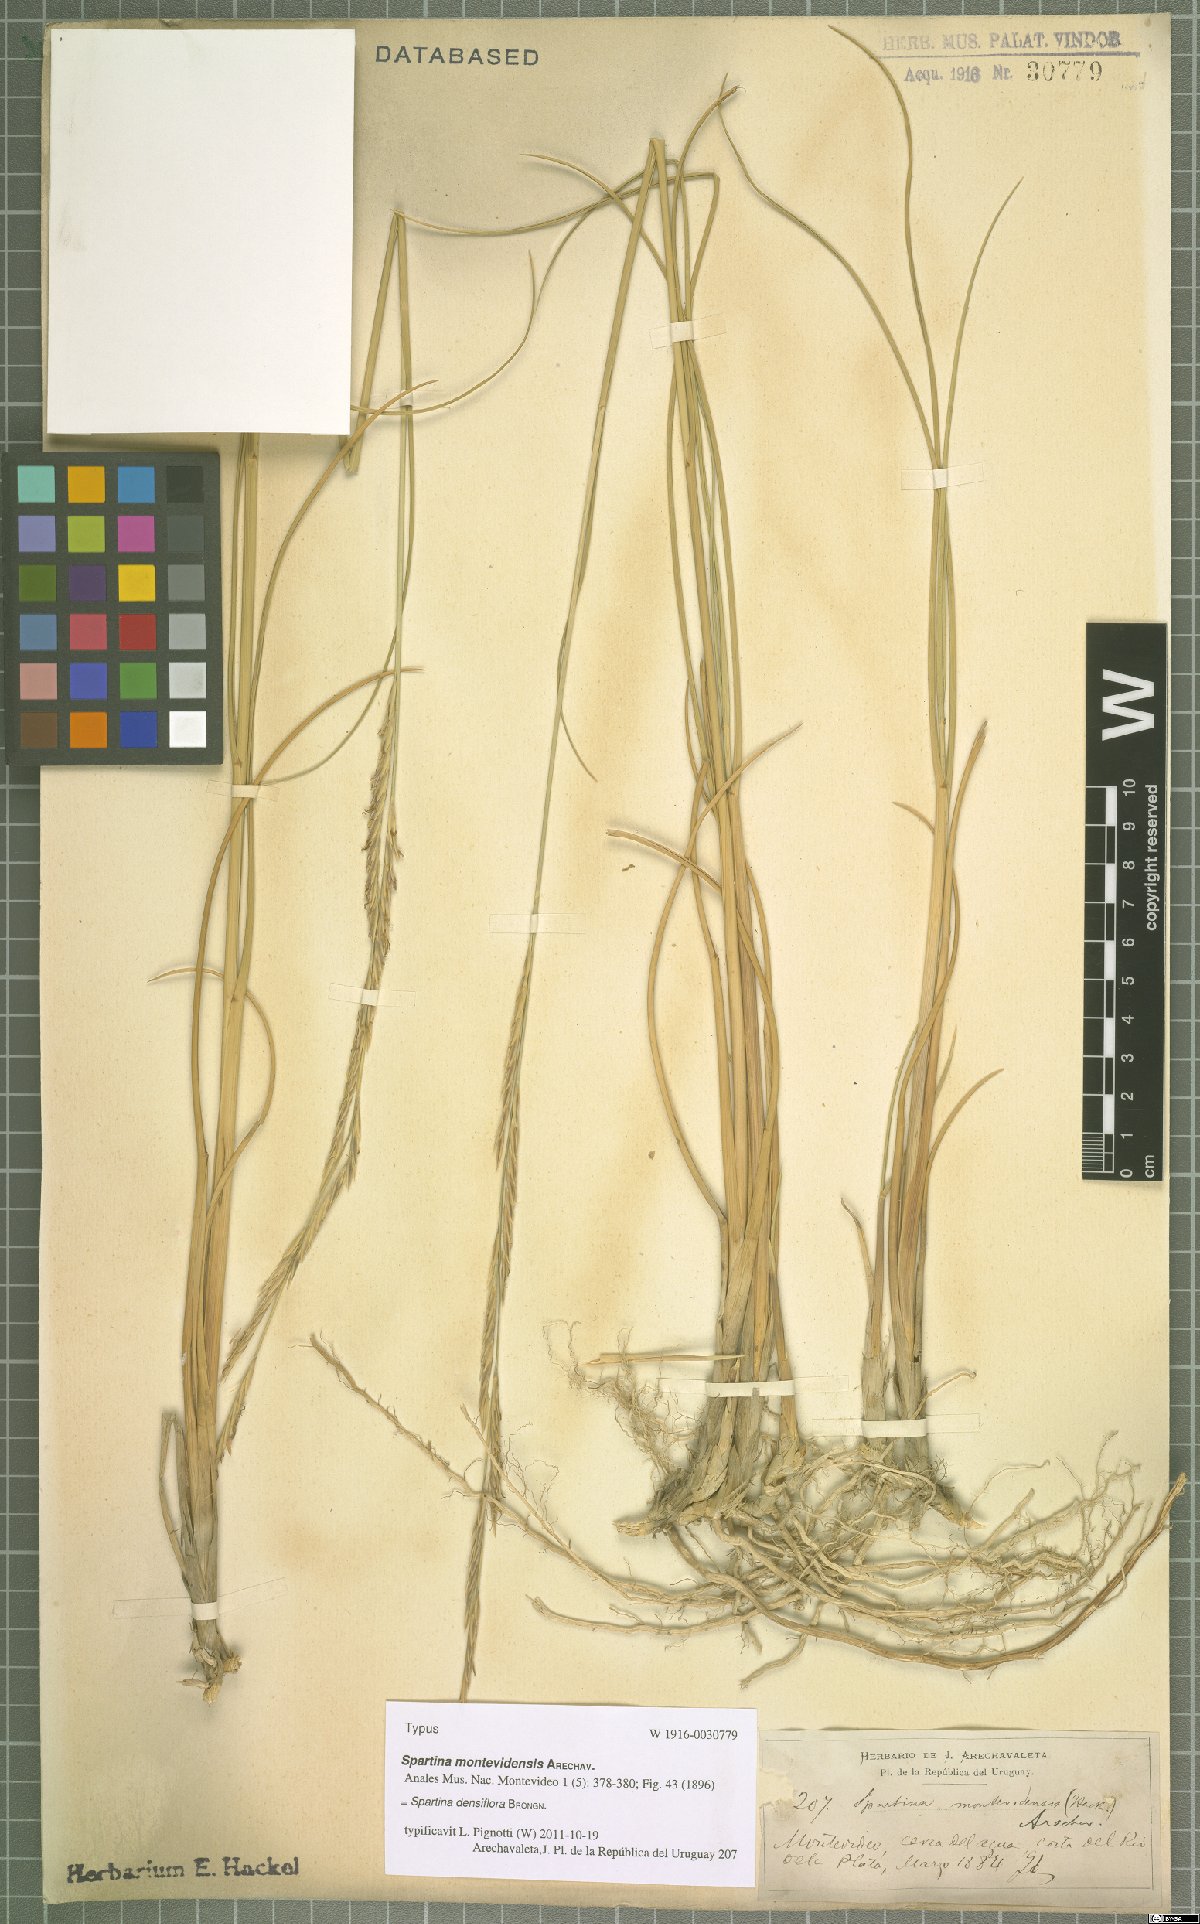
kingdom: Plantae
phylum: Tracheophyta
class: Liliopsida
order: Poales
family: Poaceae
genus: Sporobolus
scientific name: Sporobolus montevidensis
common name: Montevideo dropseed
